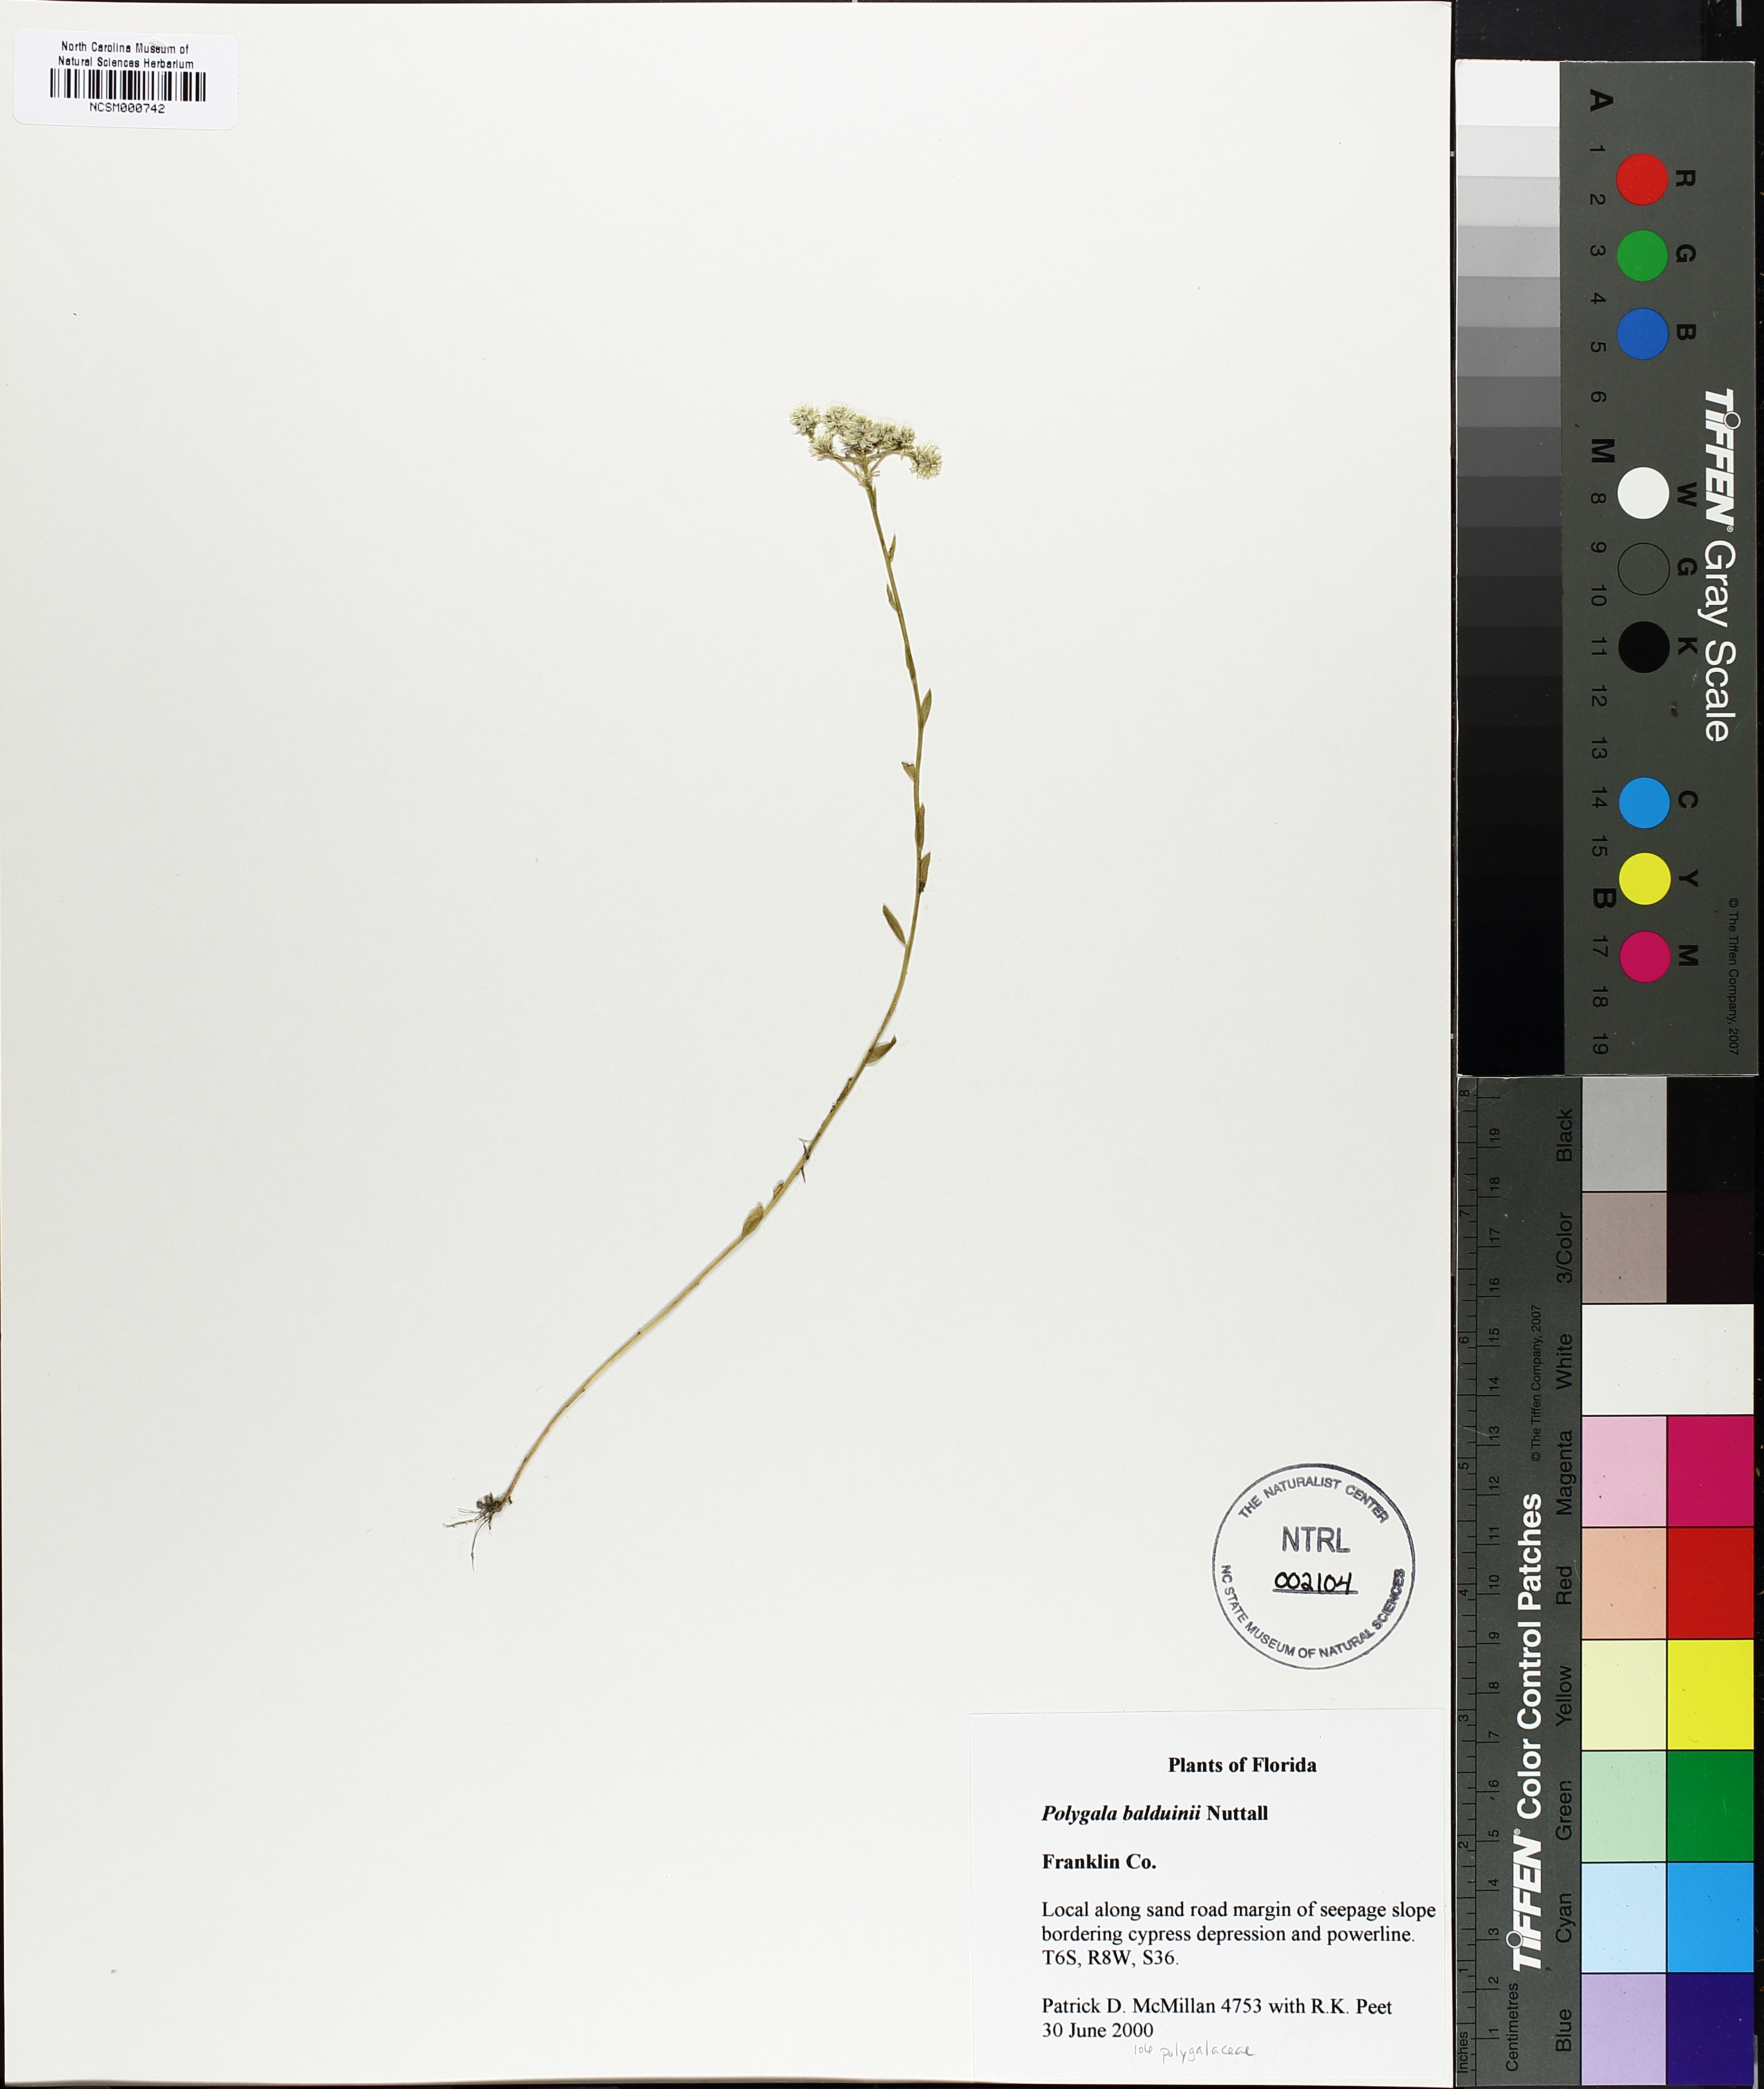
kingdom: Plantae
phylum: Tracheophyta
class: Magnoliopsida
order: Fabales
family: Polygalaceae
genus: Polygala
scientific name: Polygala baldwinii
